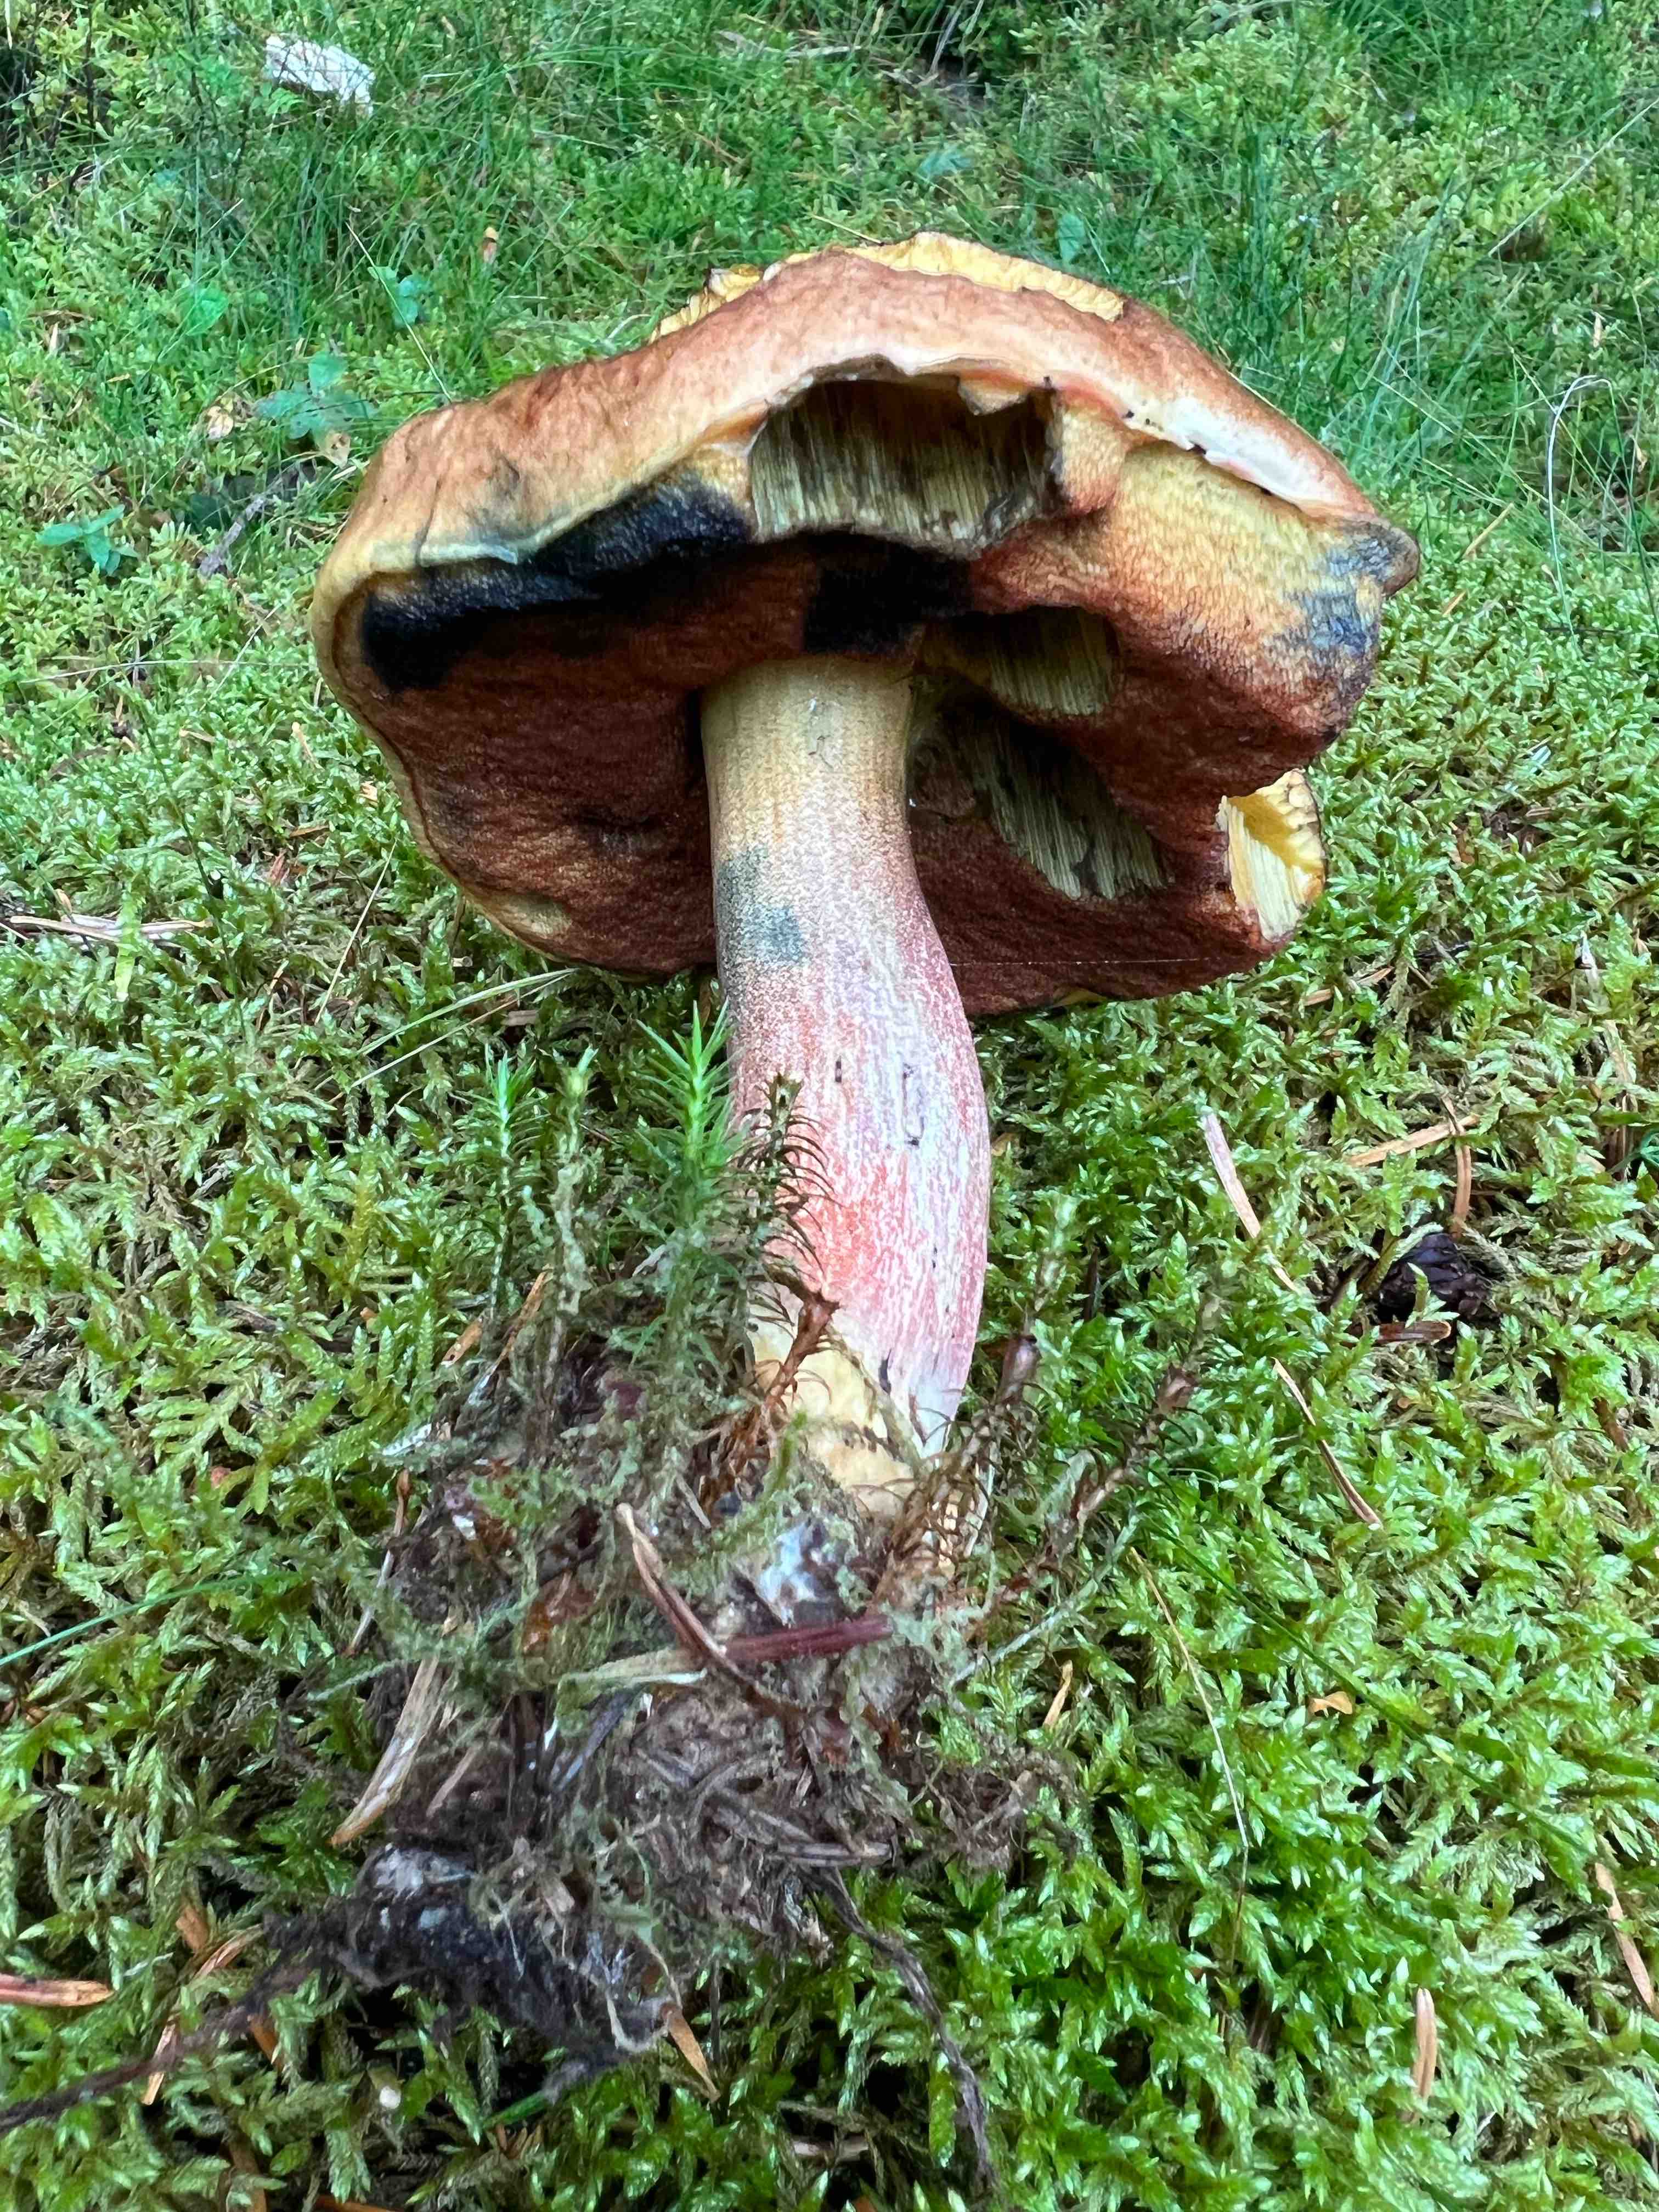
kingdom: Fungi
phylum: Basidiomycota
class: Agaricomycetes
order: Boletales
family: Boletaceae
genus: Neoboletus
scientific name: Neoboletus erythropus
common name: punktstokket indigorørhat
